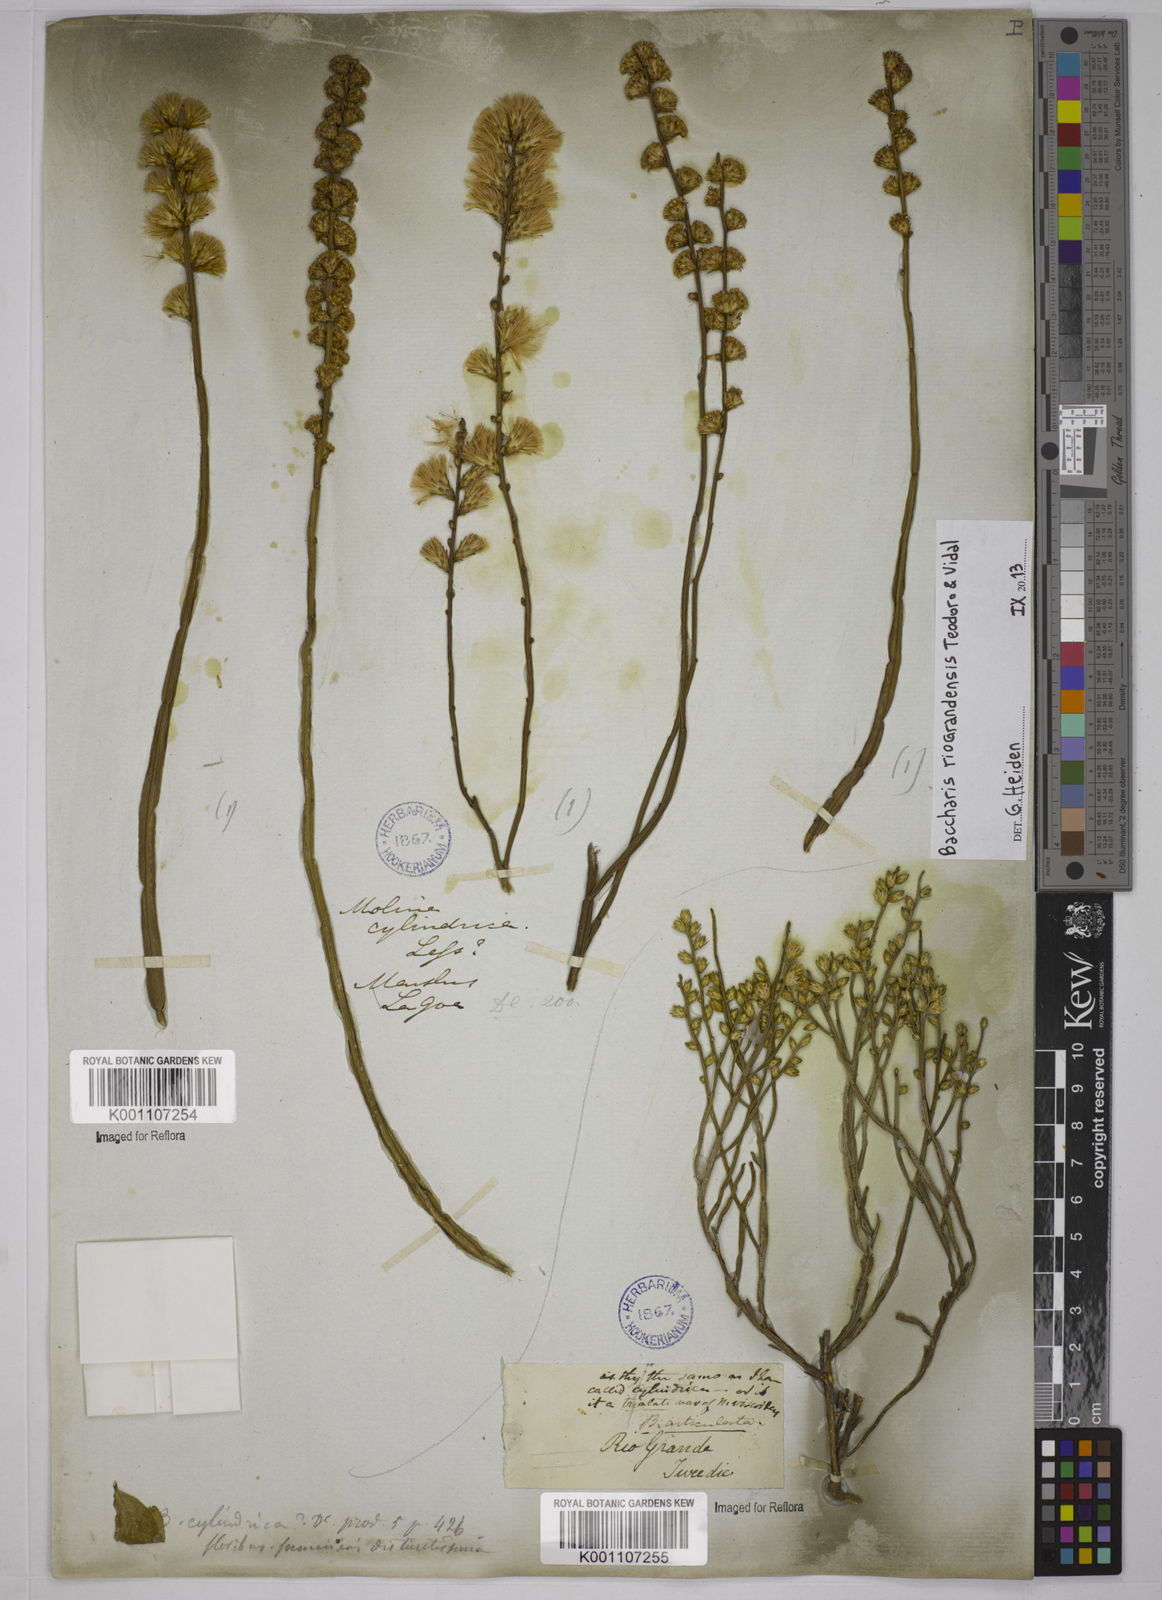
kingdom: Plantae
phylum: Tracheophyta
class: Magnoliopsida
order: Asterales
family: Asteraceae
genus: Baccharis
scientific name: Baccharis riograndensis
